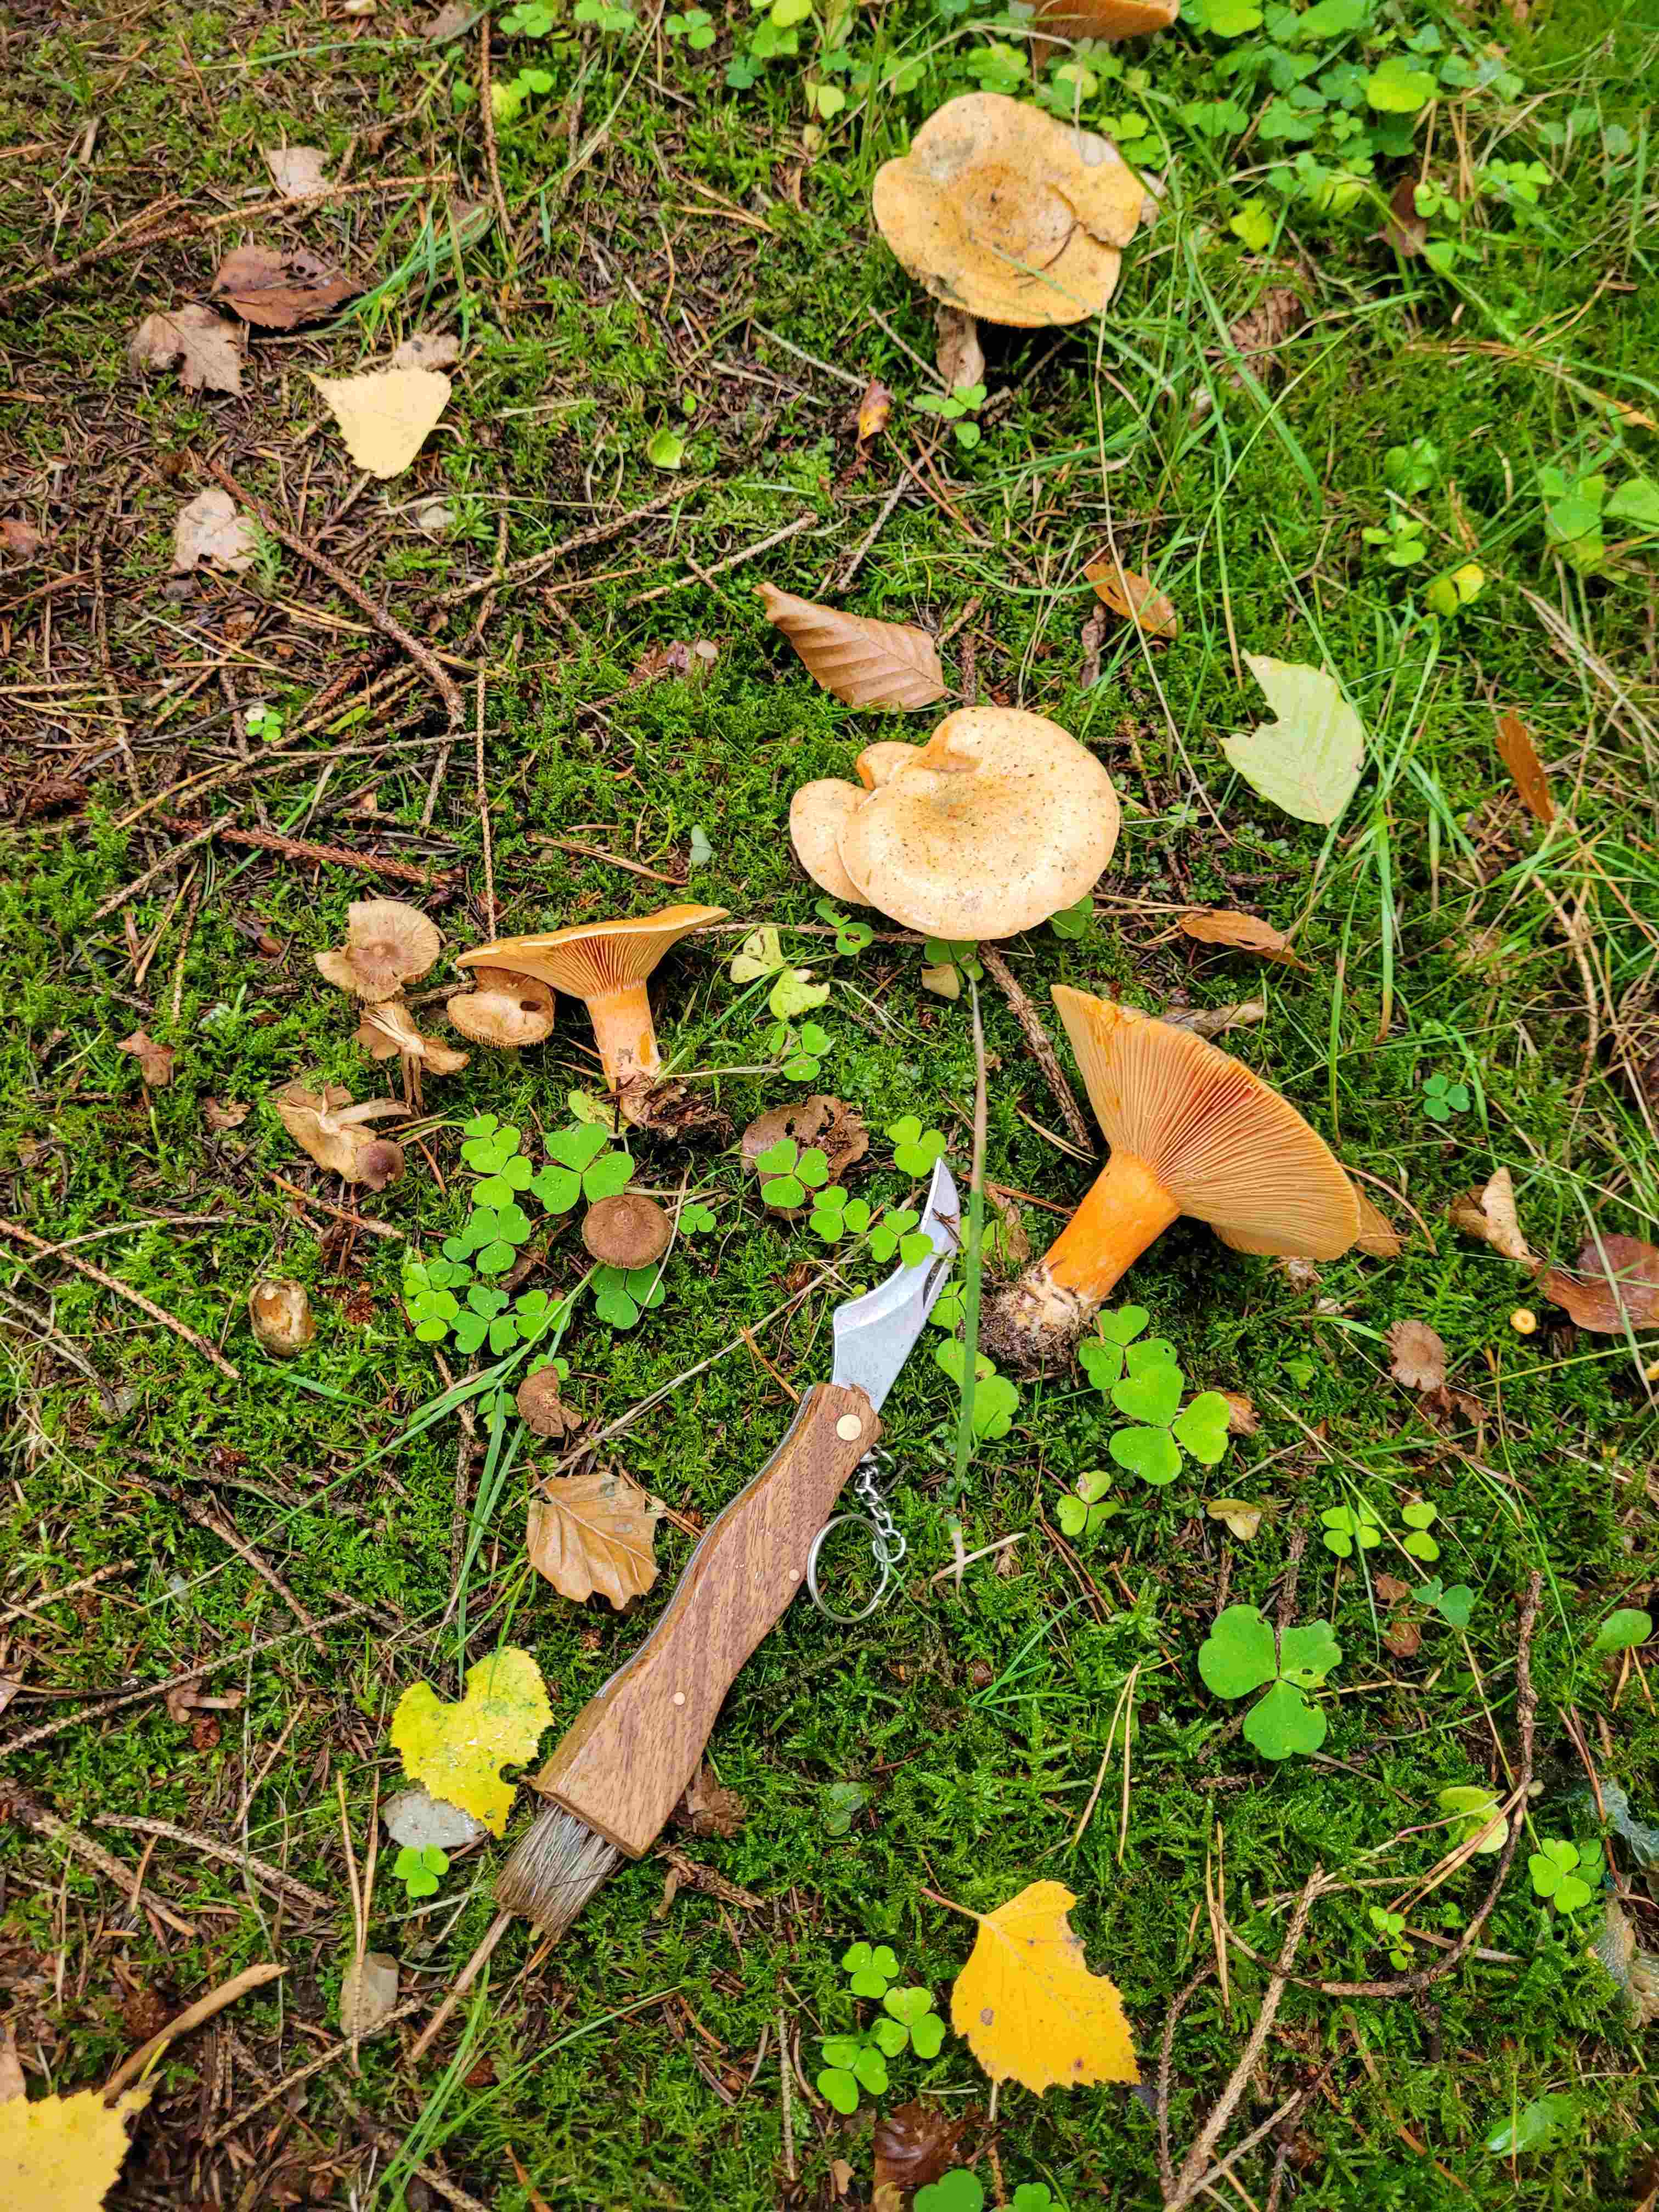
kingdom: Fungi
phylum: Basidiomycota
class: Agaricomycetes
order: Russulales
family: Russulaceae
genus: Lactarius
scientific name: Lactarius deterrimus
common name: gran-mælkehat
